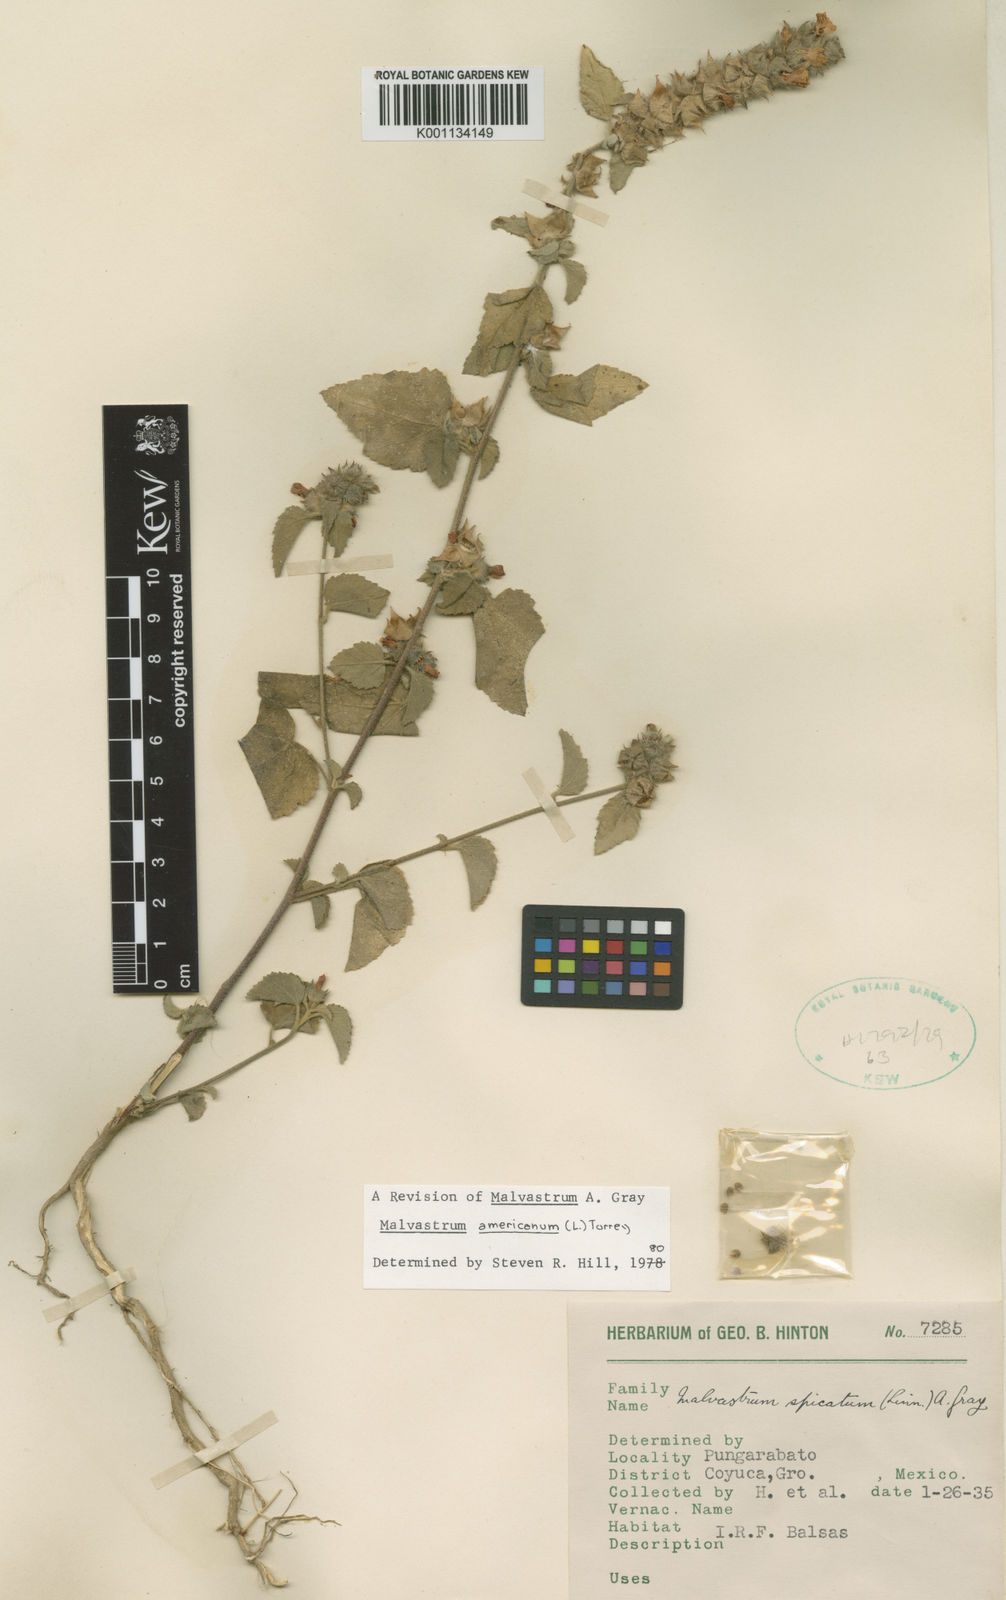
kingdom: Plantae
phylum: Tracheophyta
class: Magnoliopsida
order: Malvales
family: Malvaceae
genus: Malvastrum
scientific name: Malvastrum americanum
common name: Spiked malvastrum
